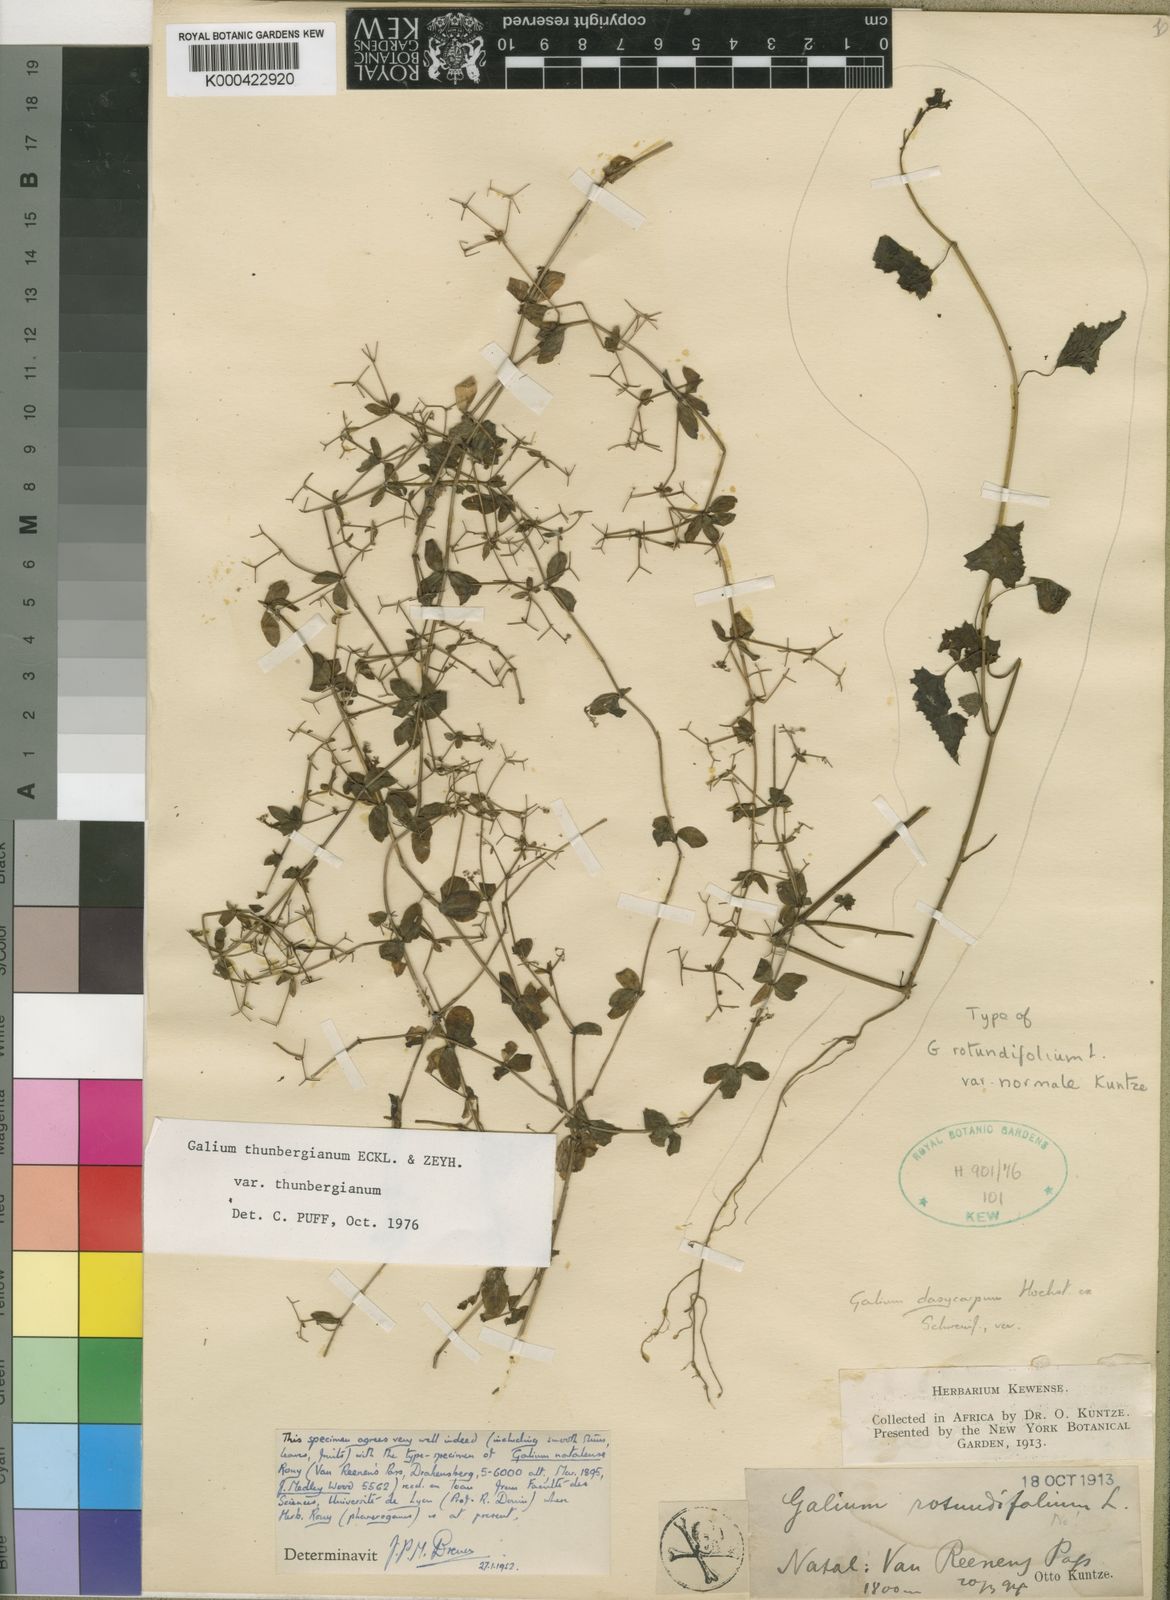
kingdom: Plantae
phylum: Tracheophyta
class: Magnoliopsida
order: Gentianales
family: Rubiaceae
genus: Galium
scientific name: Galium thunbergianum
